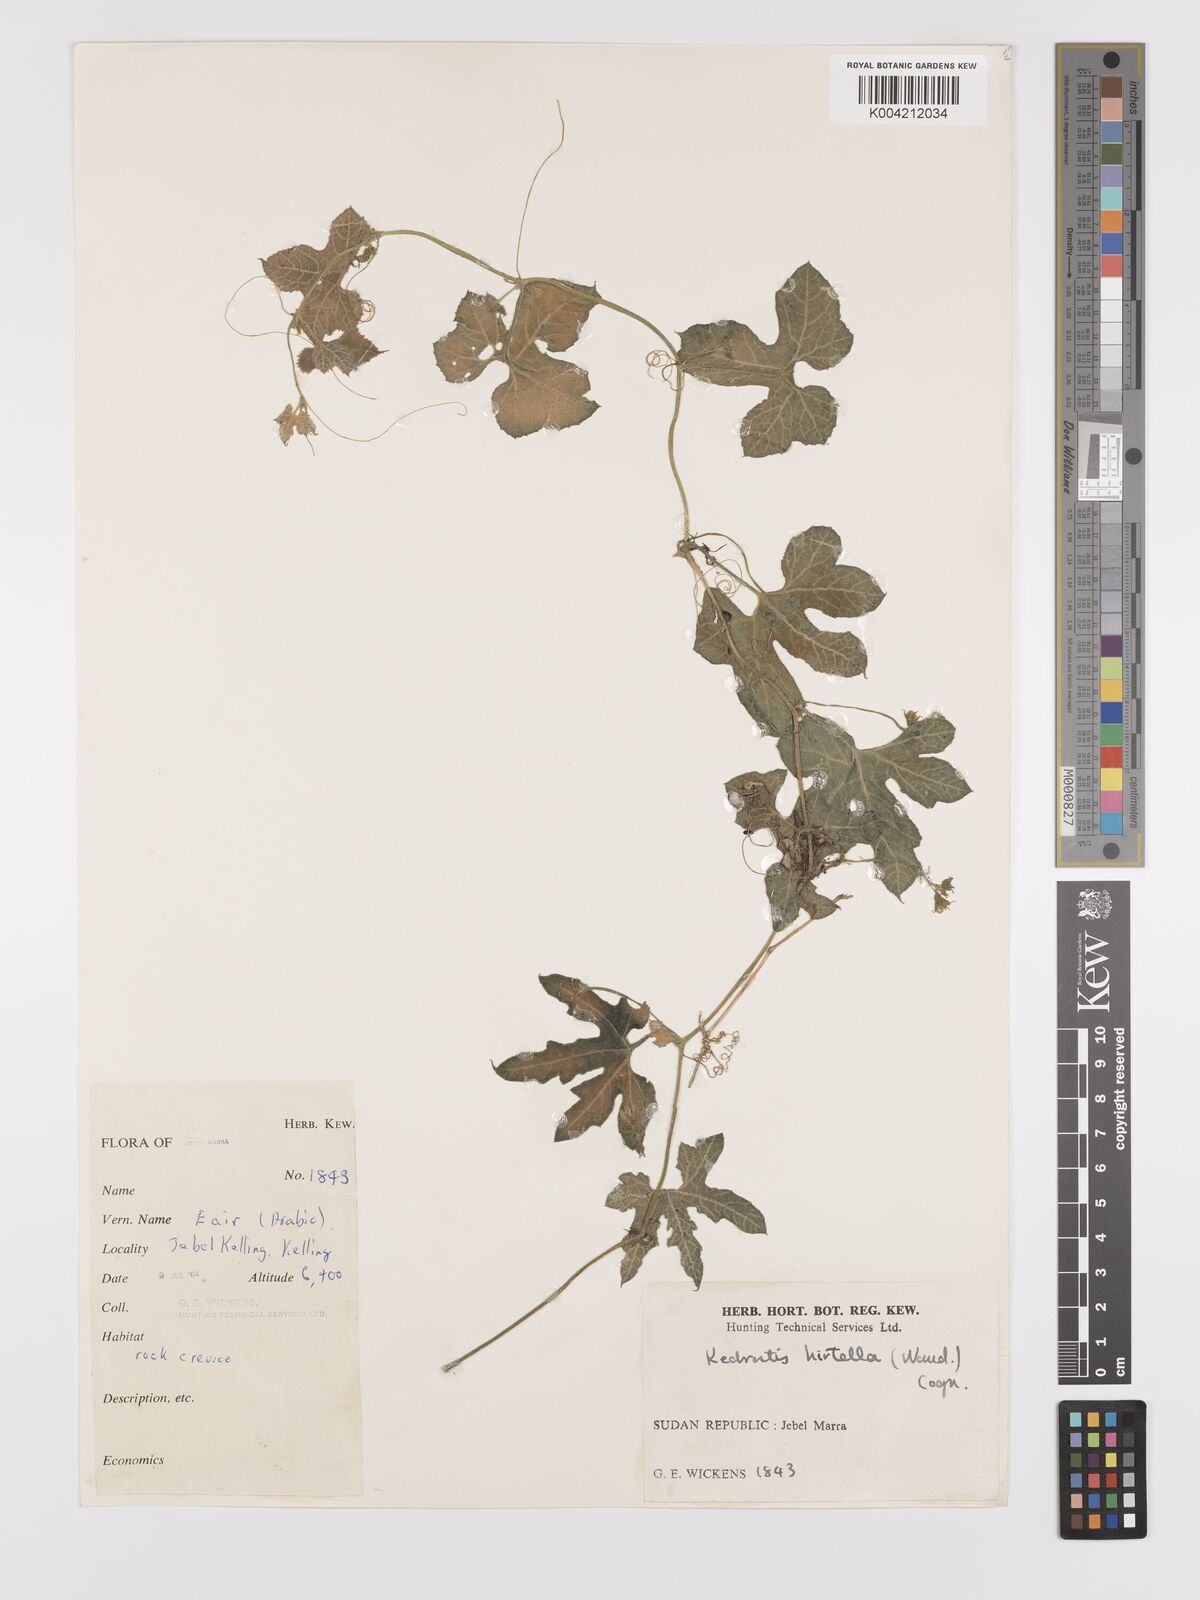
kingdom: Plantae
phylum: Tracheophyta
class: Magnoliopsida
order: Cucurbitales
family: Cucurbitaceae
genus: Kedrostis
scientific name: Kedrostis leloja
